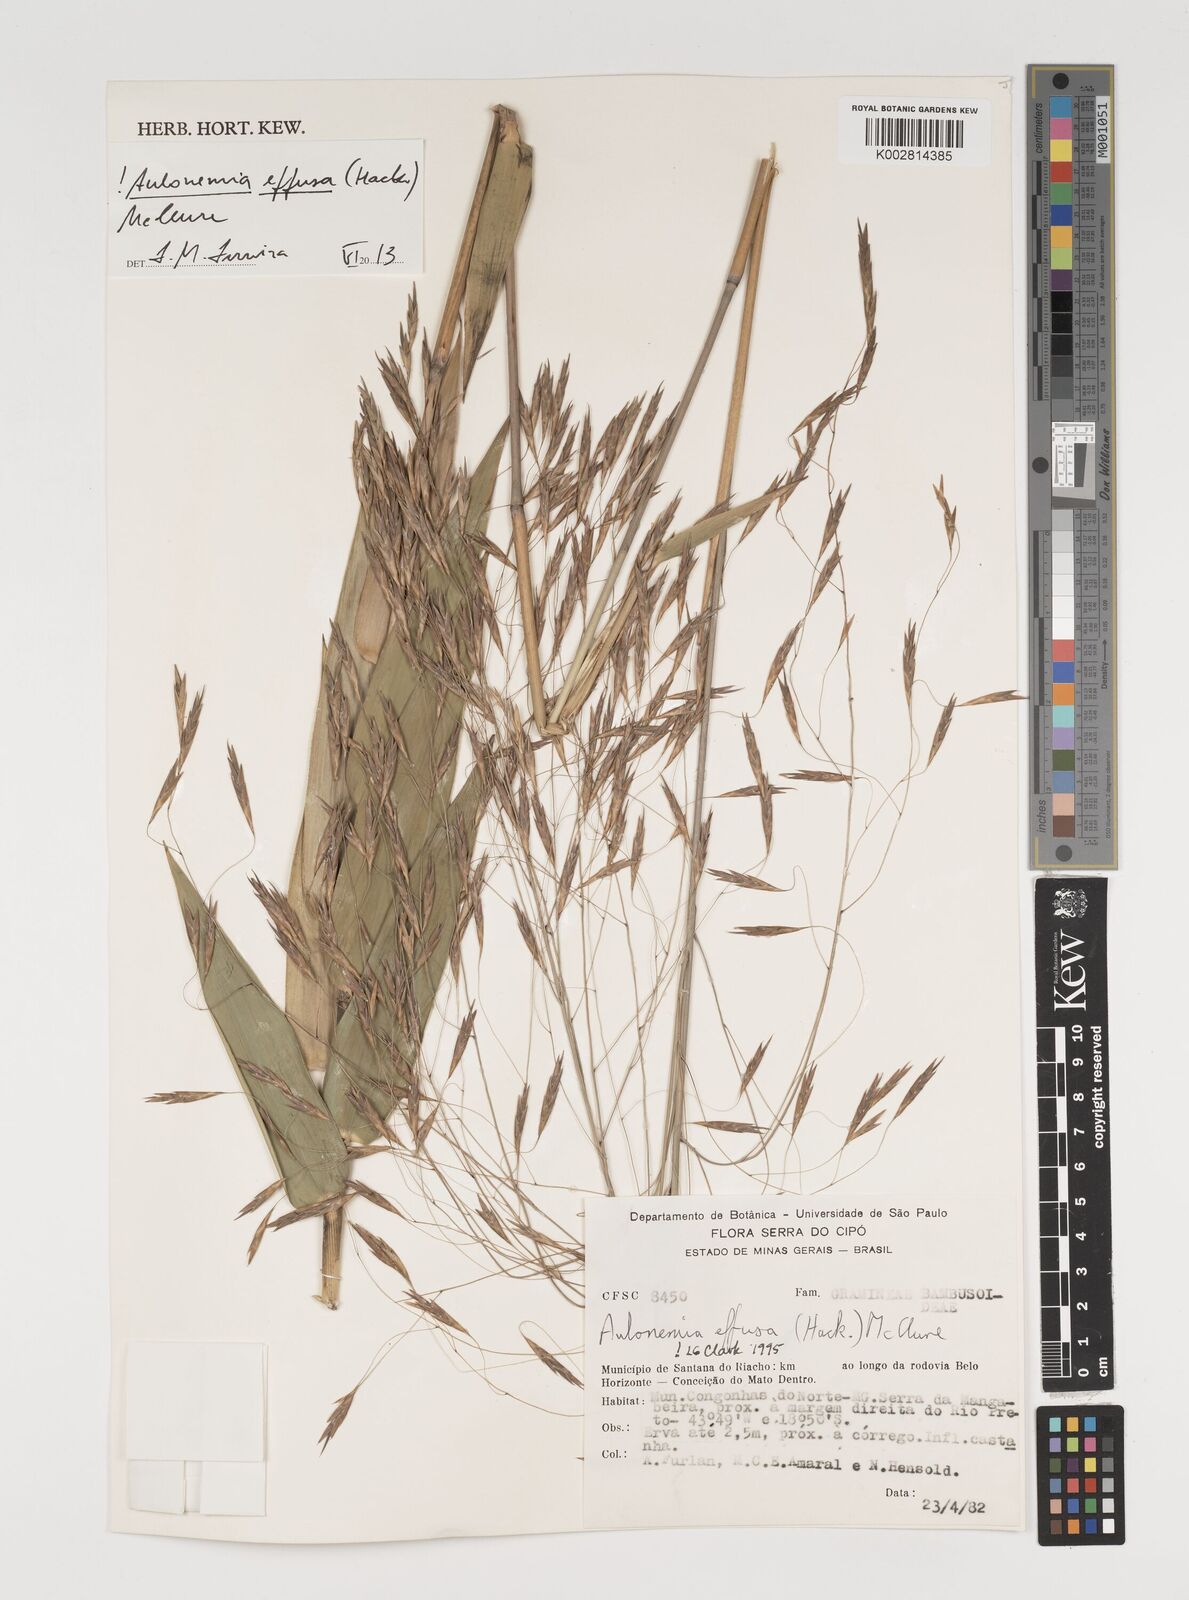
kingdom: Plantae
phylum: Tracheophyta
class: Liliopsida
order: Poales
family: Poaceae
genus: Aulonemia
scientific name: Aulonemia effusa
